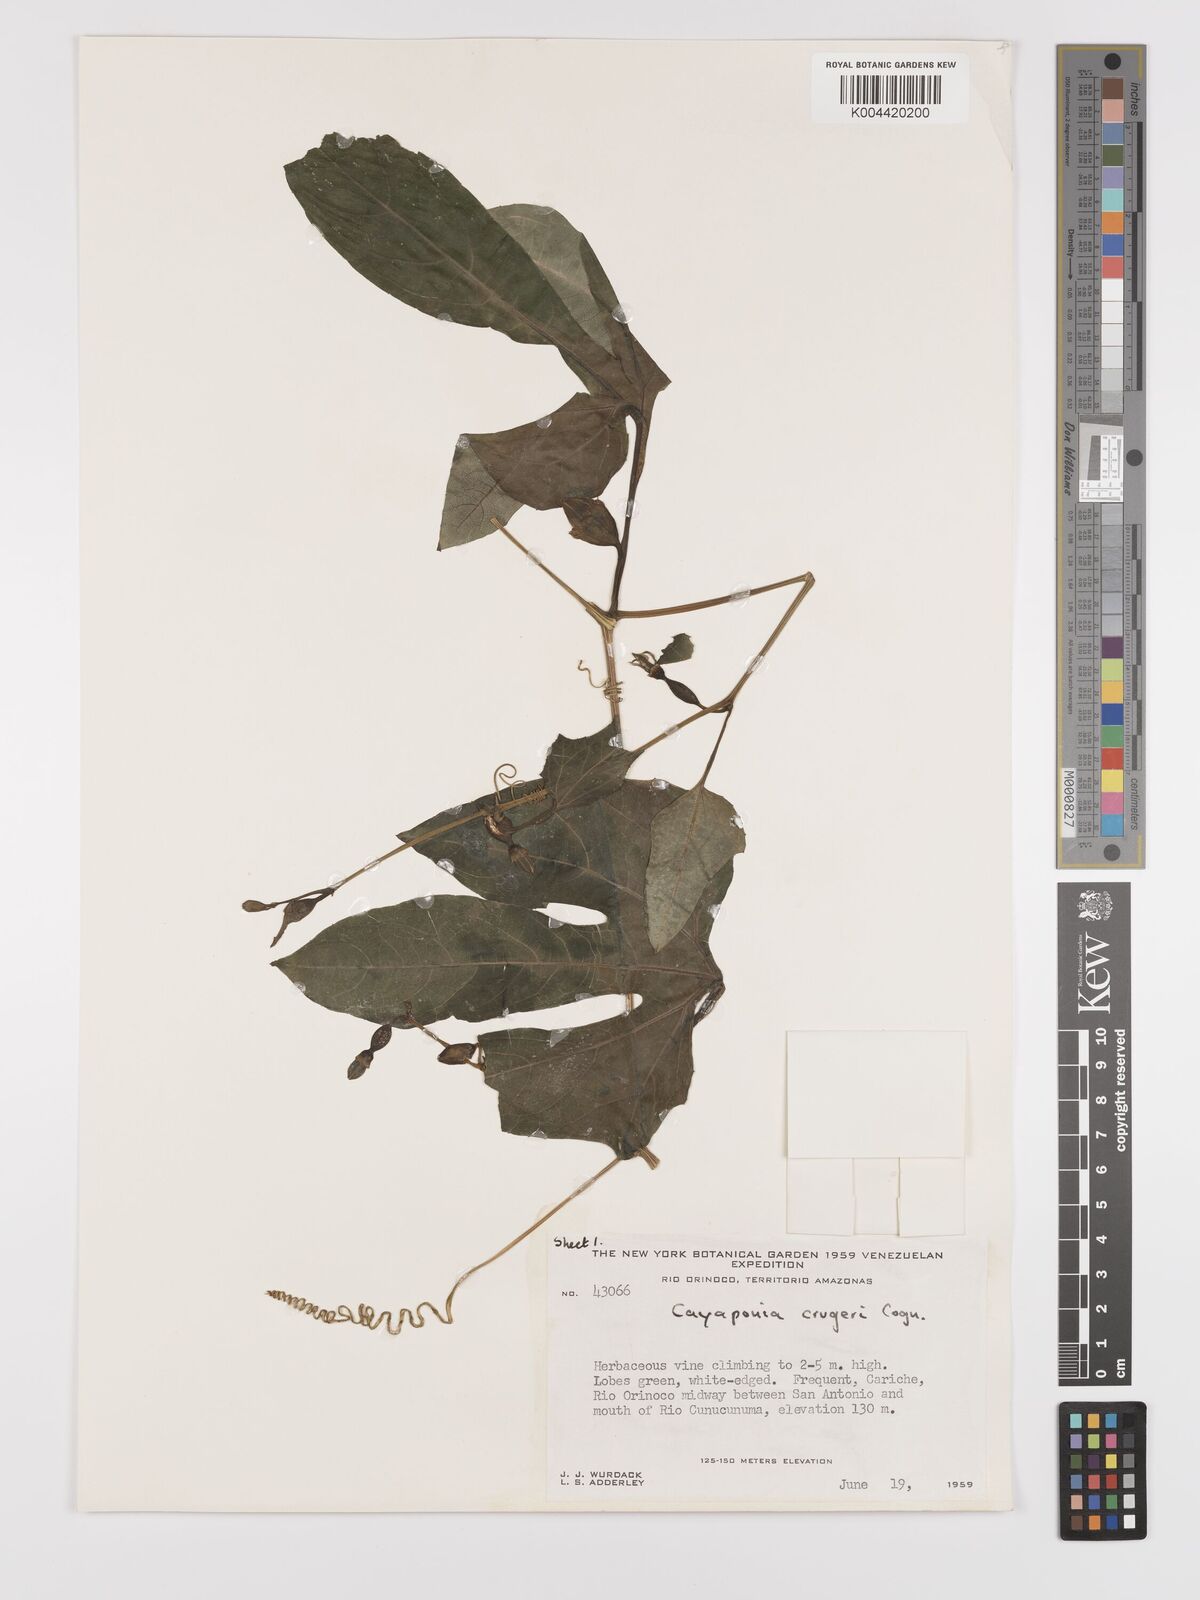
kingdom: Plantae
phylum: Tracheophyta
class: Magnoliopsida
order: Cucurbitales
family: Cucurbitaceae
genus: Cayaponia
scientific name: Cayaponia cruegeri
